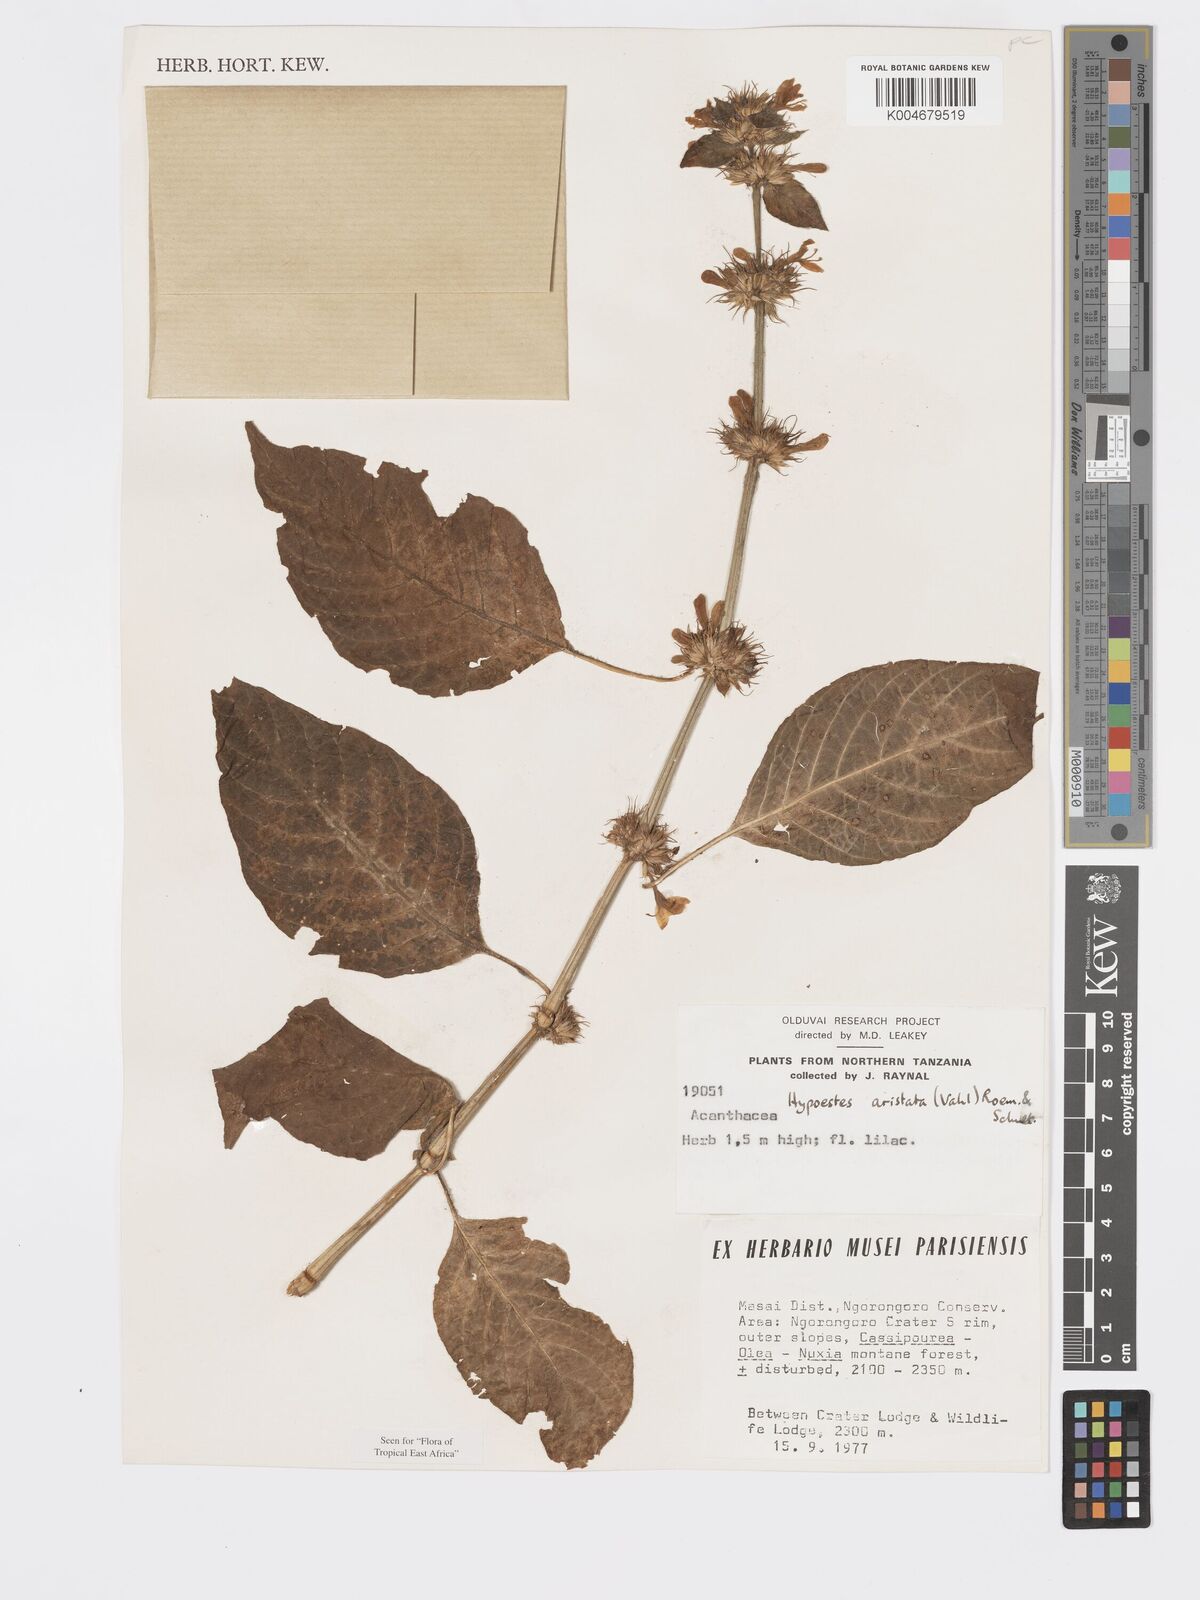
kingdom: Plantae
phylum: Tracheophyta
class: Magnoliopsida
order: Lamiales
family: Acanthaceae
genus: Hypoestes
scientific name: Hypoestes aristata
